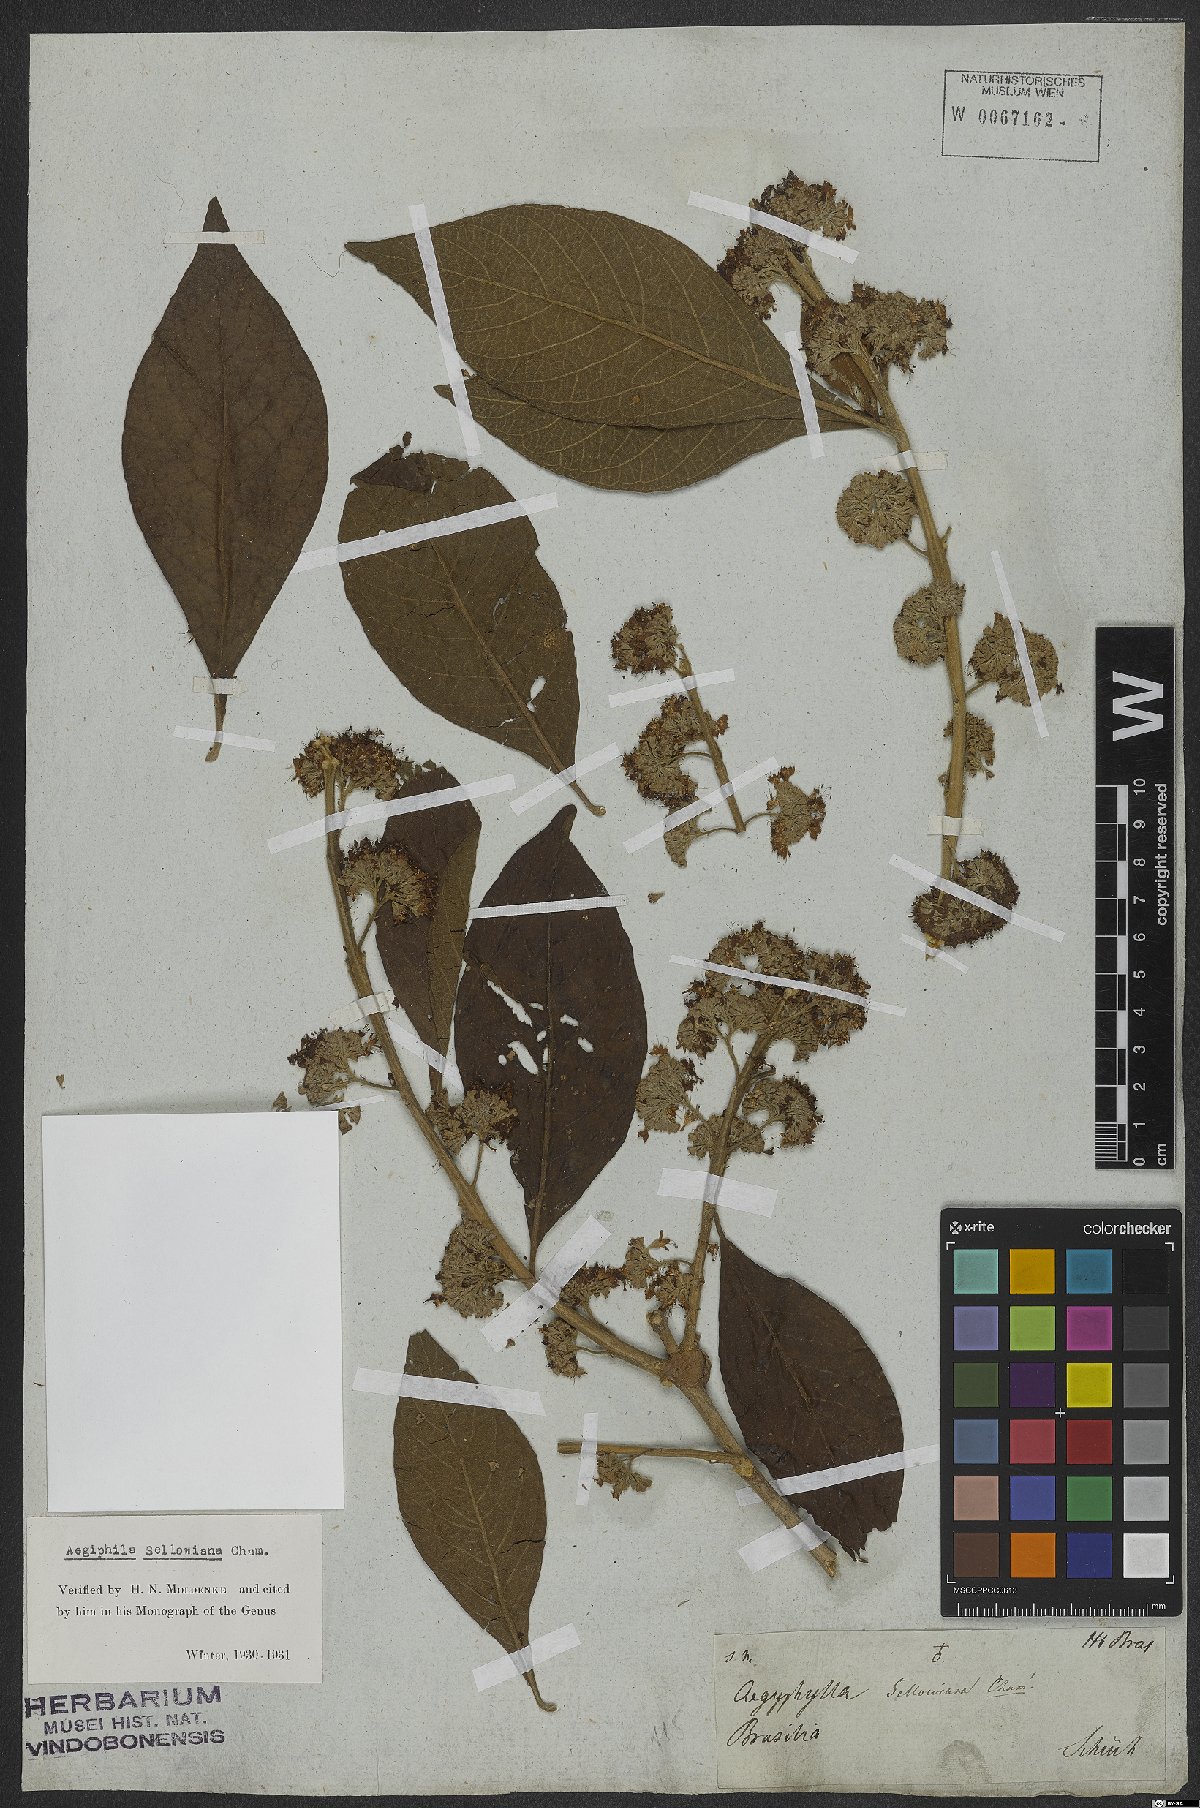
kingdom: Plantae
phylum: Tracheophyta
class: Magnoliopsida
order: Lamiales
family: Lamiaceae
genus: Aegiphila
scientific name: Aegiphila verticillata
